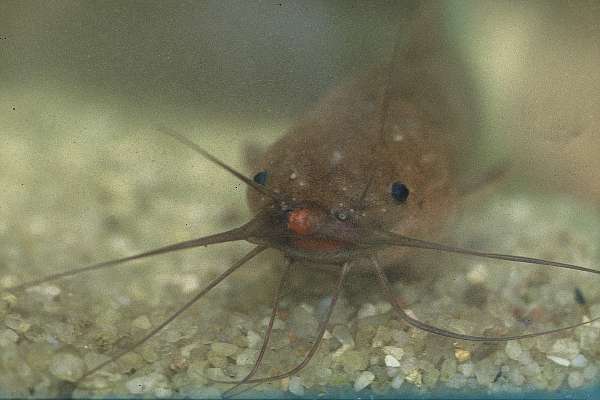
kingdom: Animalia
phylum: Chordata
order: Siluriformes
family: Clariidae
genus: Clarias
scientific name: Clarias theodorae
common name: Snake catfish
